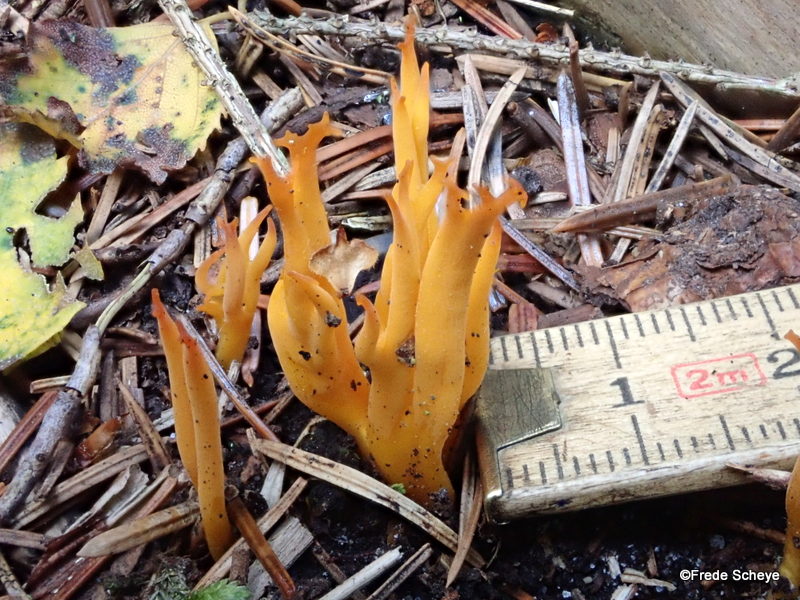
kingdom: Fungi
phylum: Basidiomycota
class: Dacrymycetes
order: Dacrymycetales
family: Dacrymycetaceae
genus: Calocera
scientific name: Calocera viscosa
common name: almindelig guldgaffel
